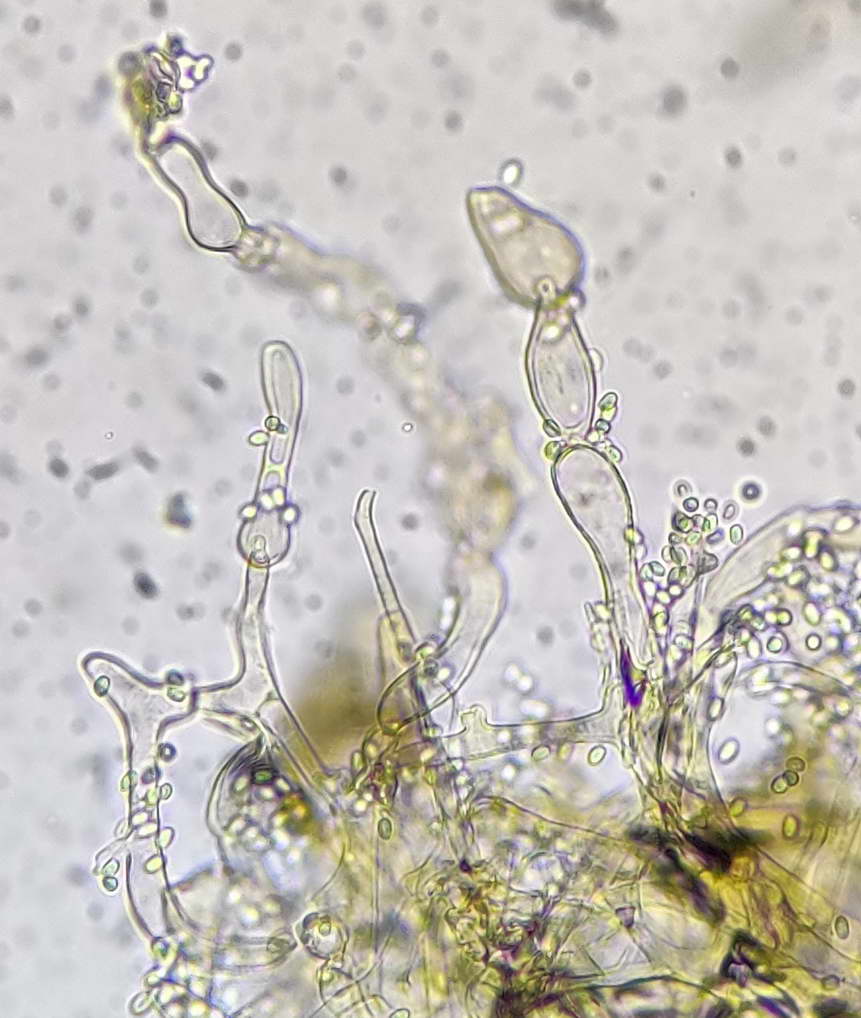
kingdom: Fungi
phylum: Basidiomycota
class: Agaricomycetes
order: Agaricales
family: Tricholomataceae
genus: Cystoderma
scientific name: Cystoderma
